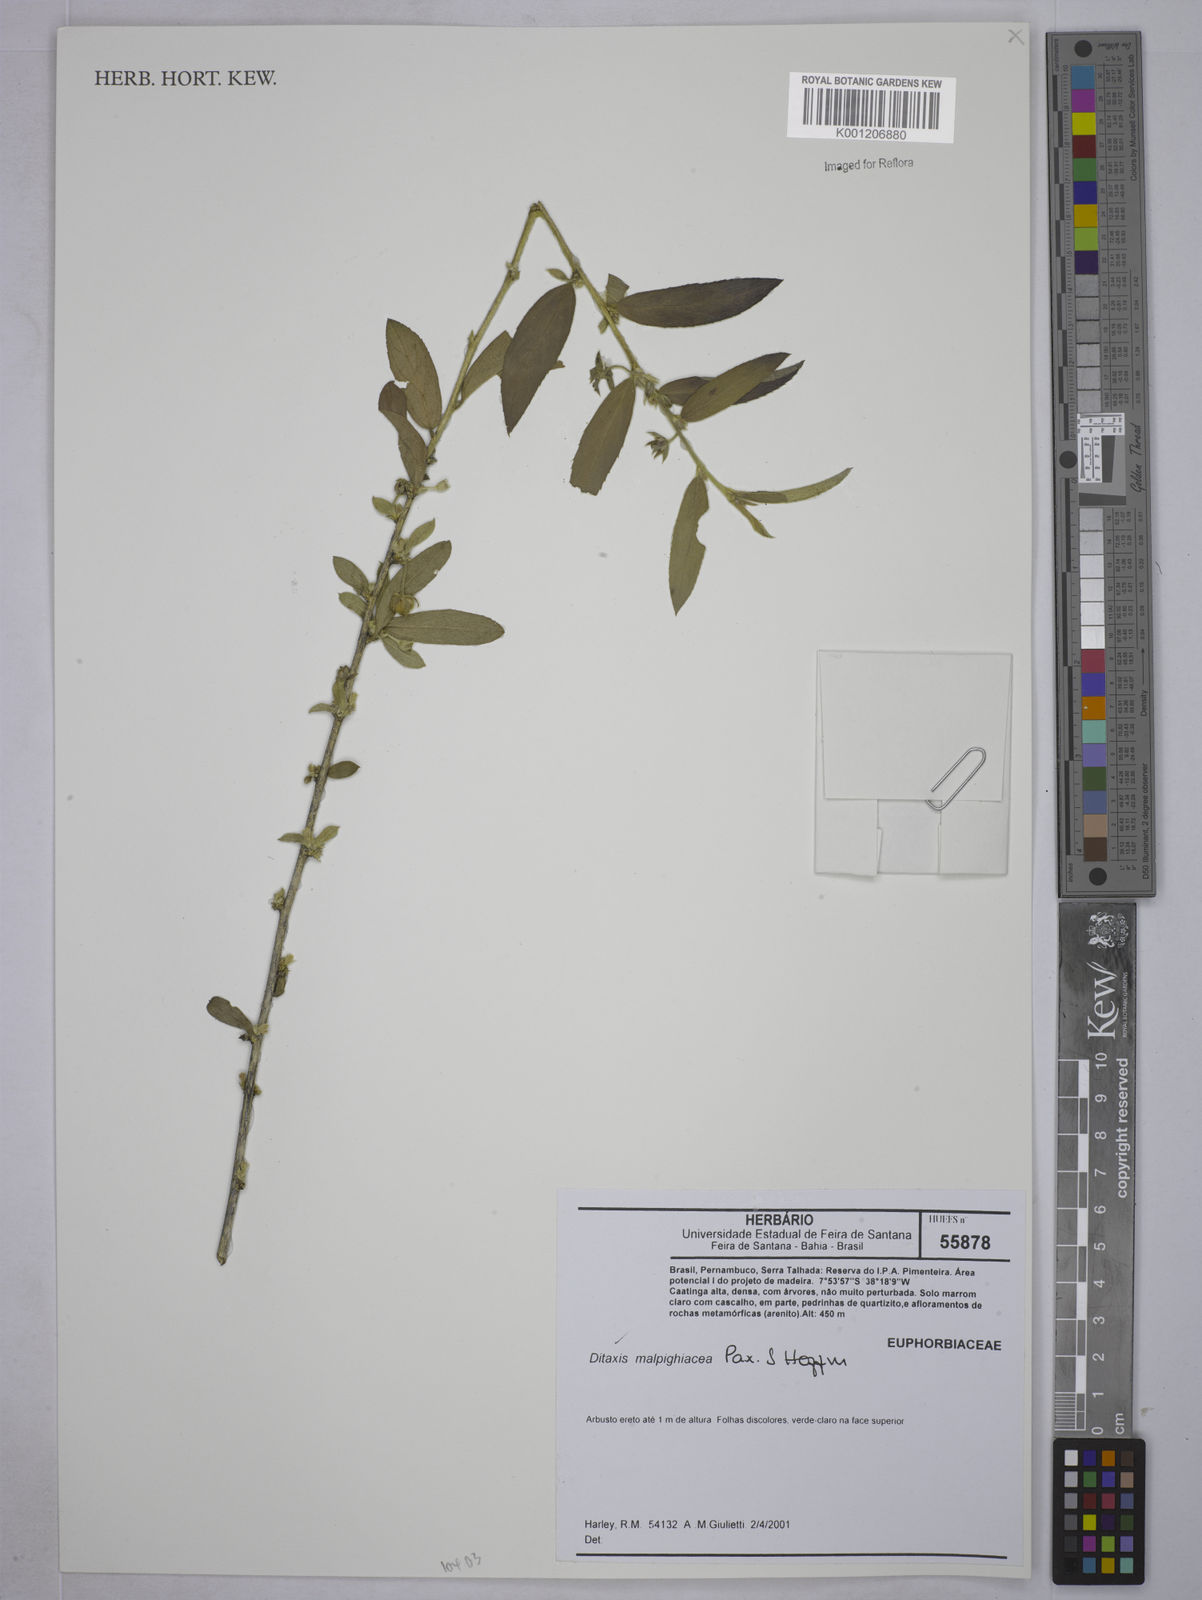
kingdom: Plantae
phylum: Tracheophyta
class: Magnoliopsida
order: Malpighiales
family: Euphorbiaceae
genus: Ditaxis
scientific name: Ditaxis malpighiacea
